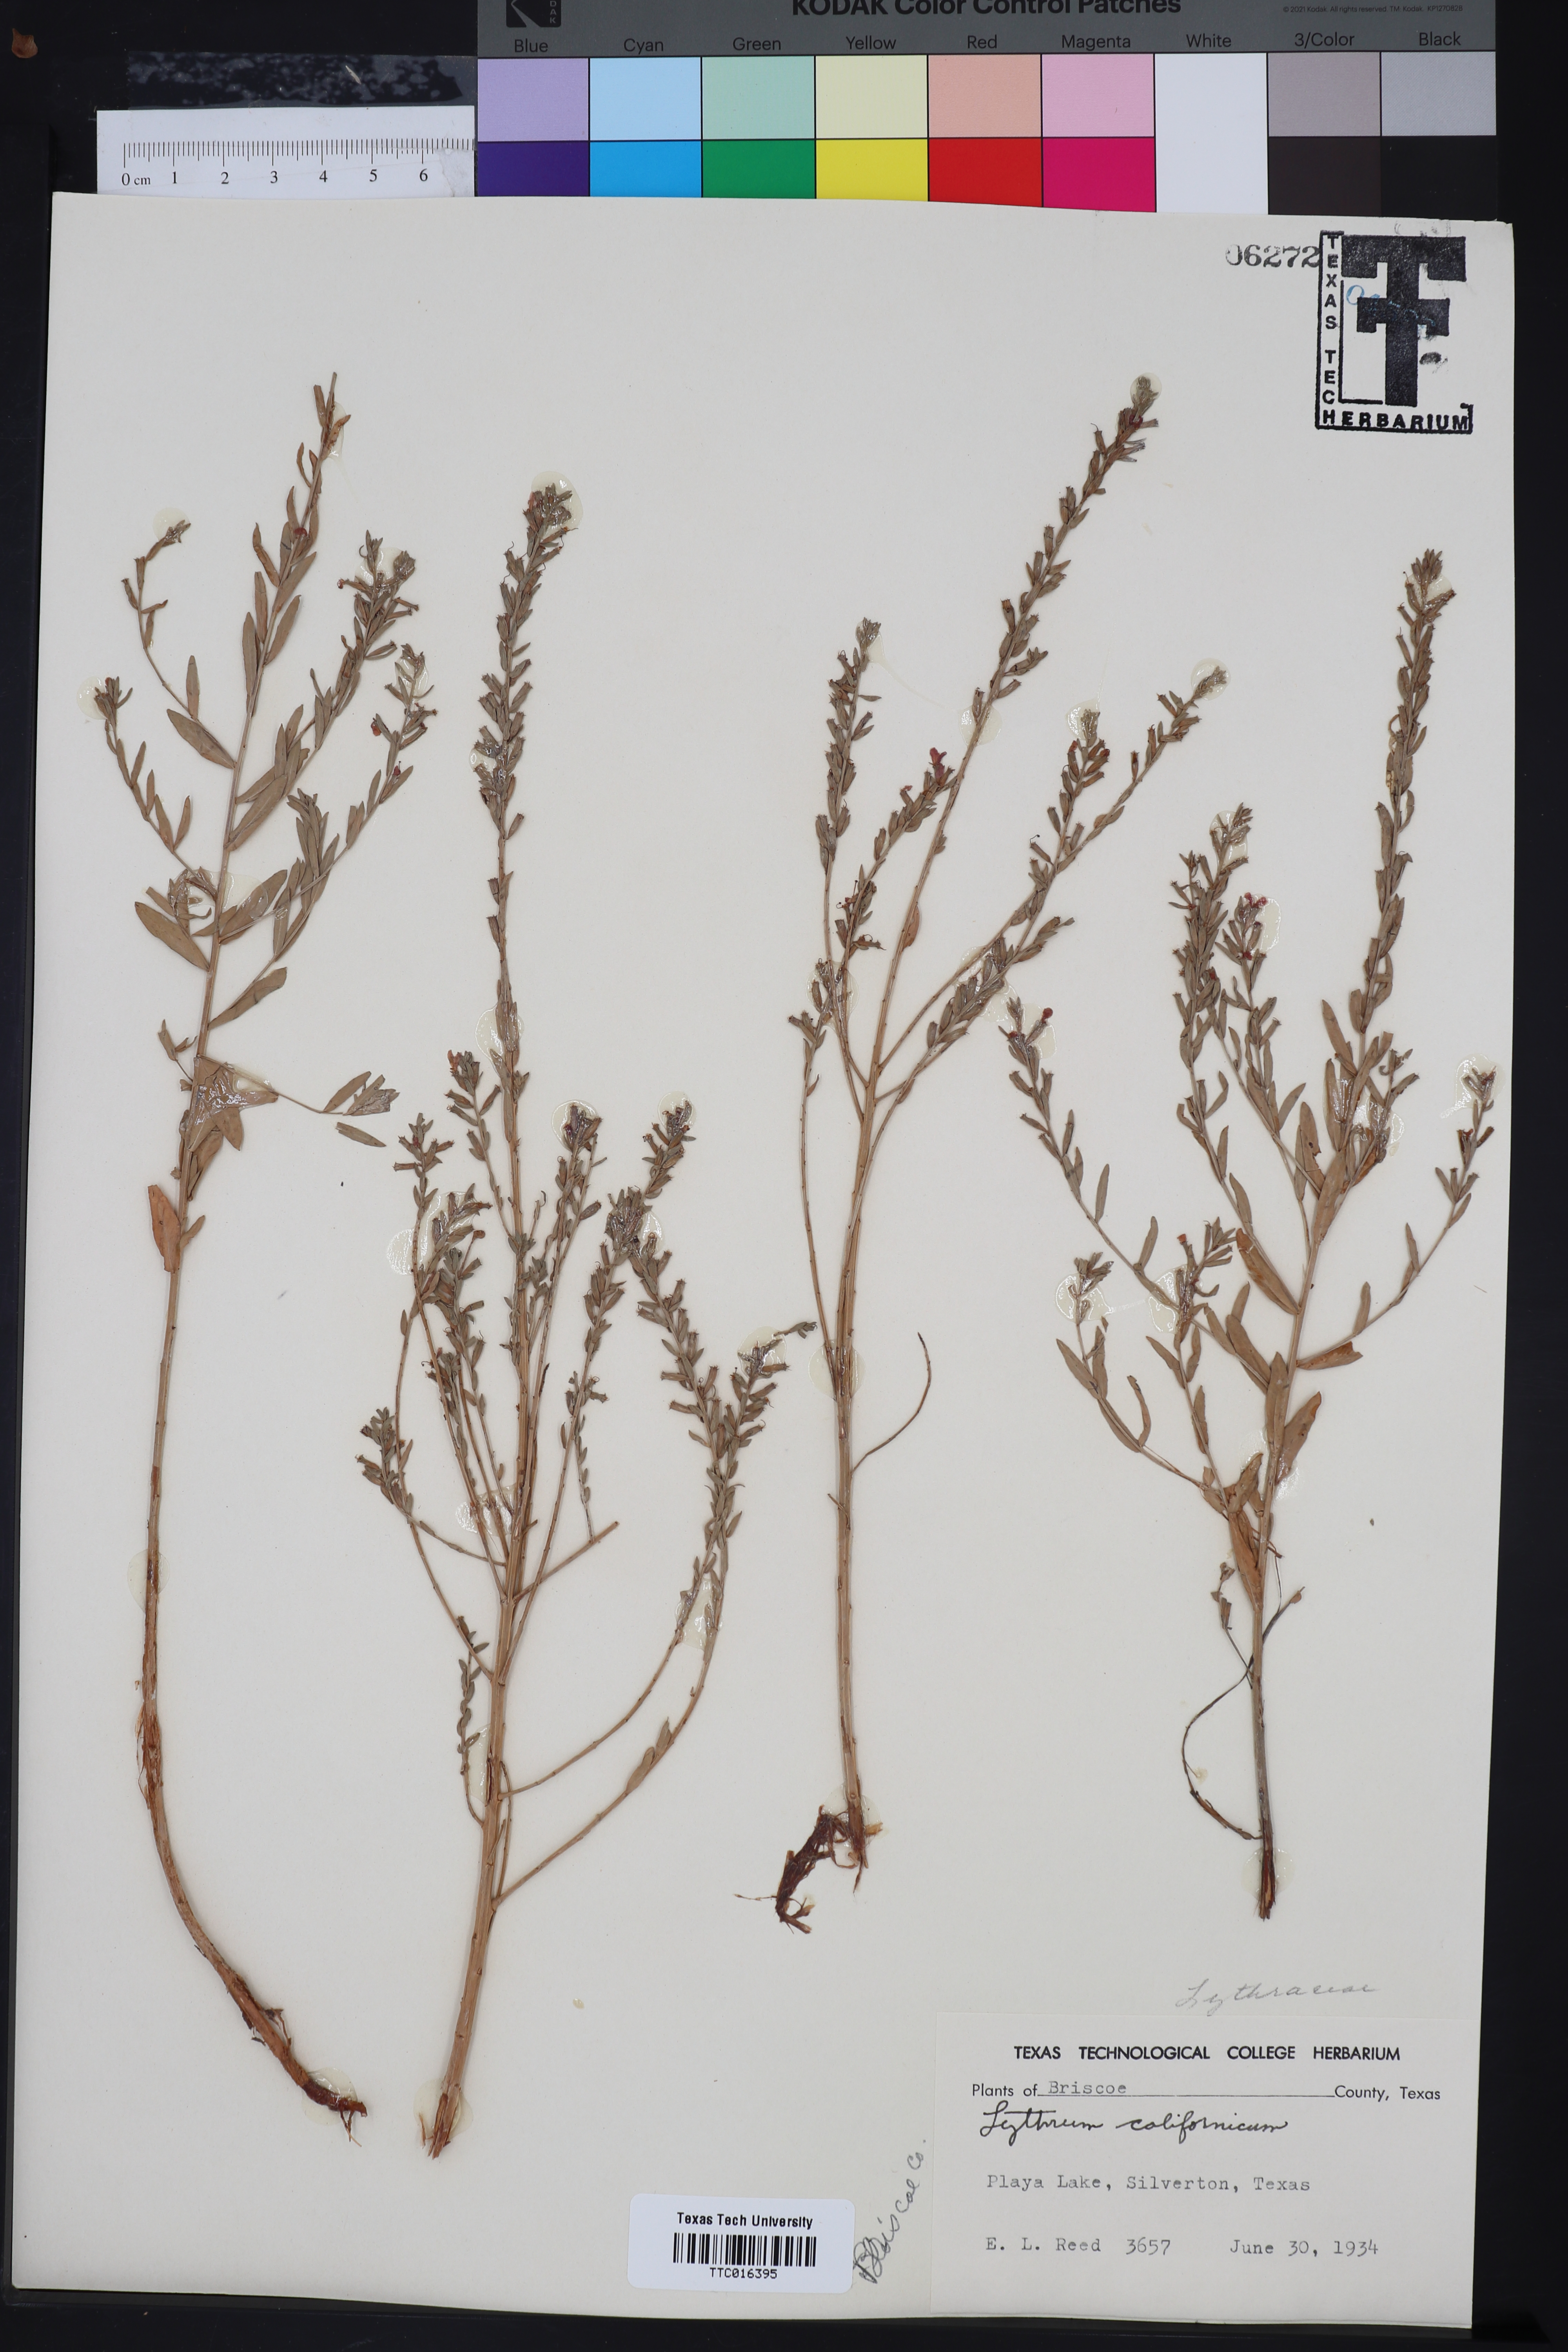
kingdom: Plantae
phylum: Tracheophyta
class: Magnoliopsida
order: Myrtales
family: Lythraceae
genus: Lythrum
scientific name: Lythrum californicum
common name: California loosestrife
